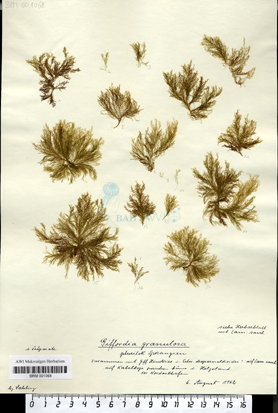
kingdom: Chromista
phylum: Ochrophyta
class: Phaeophyceae
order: Ectocarpales
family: Acinetosporaceae
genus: Hincksia
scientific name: Hincksia granulosa
